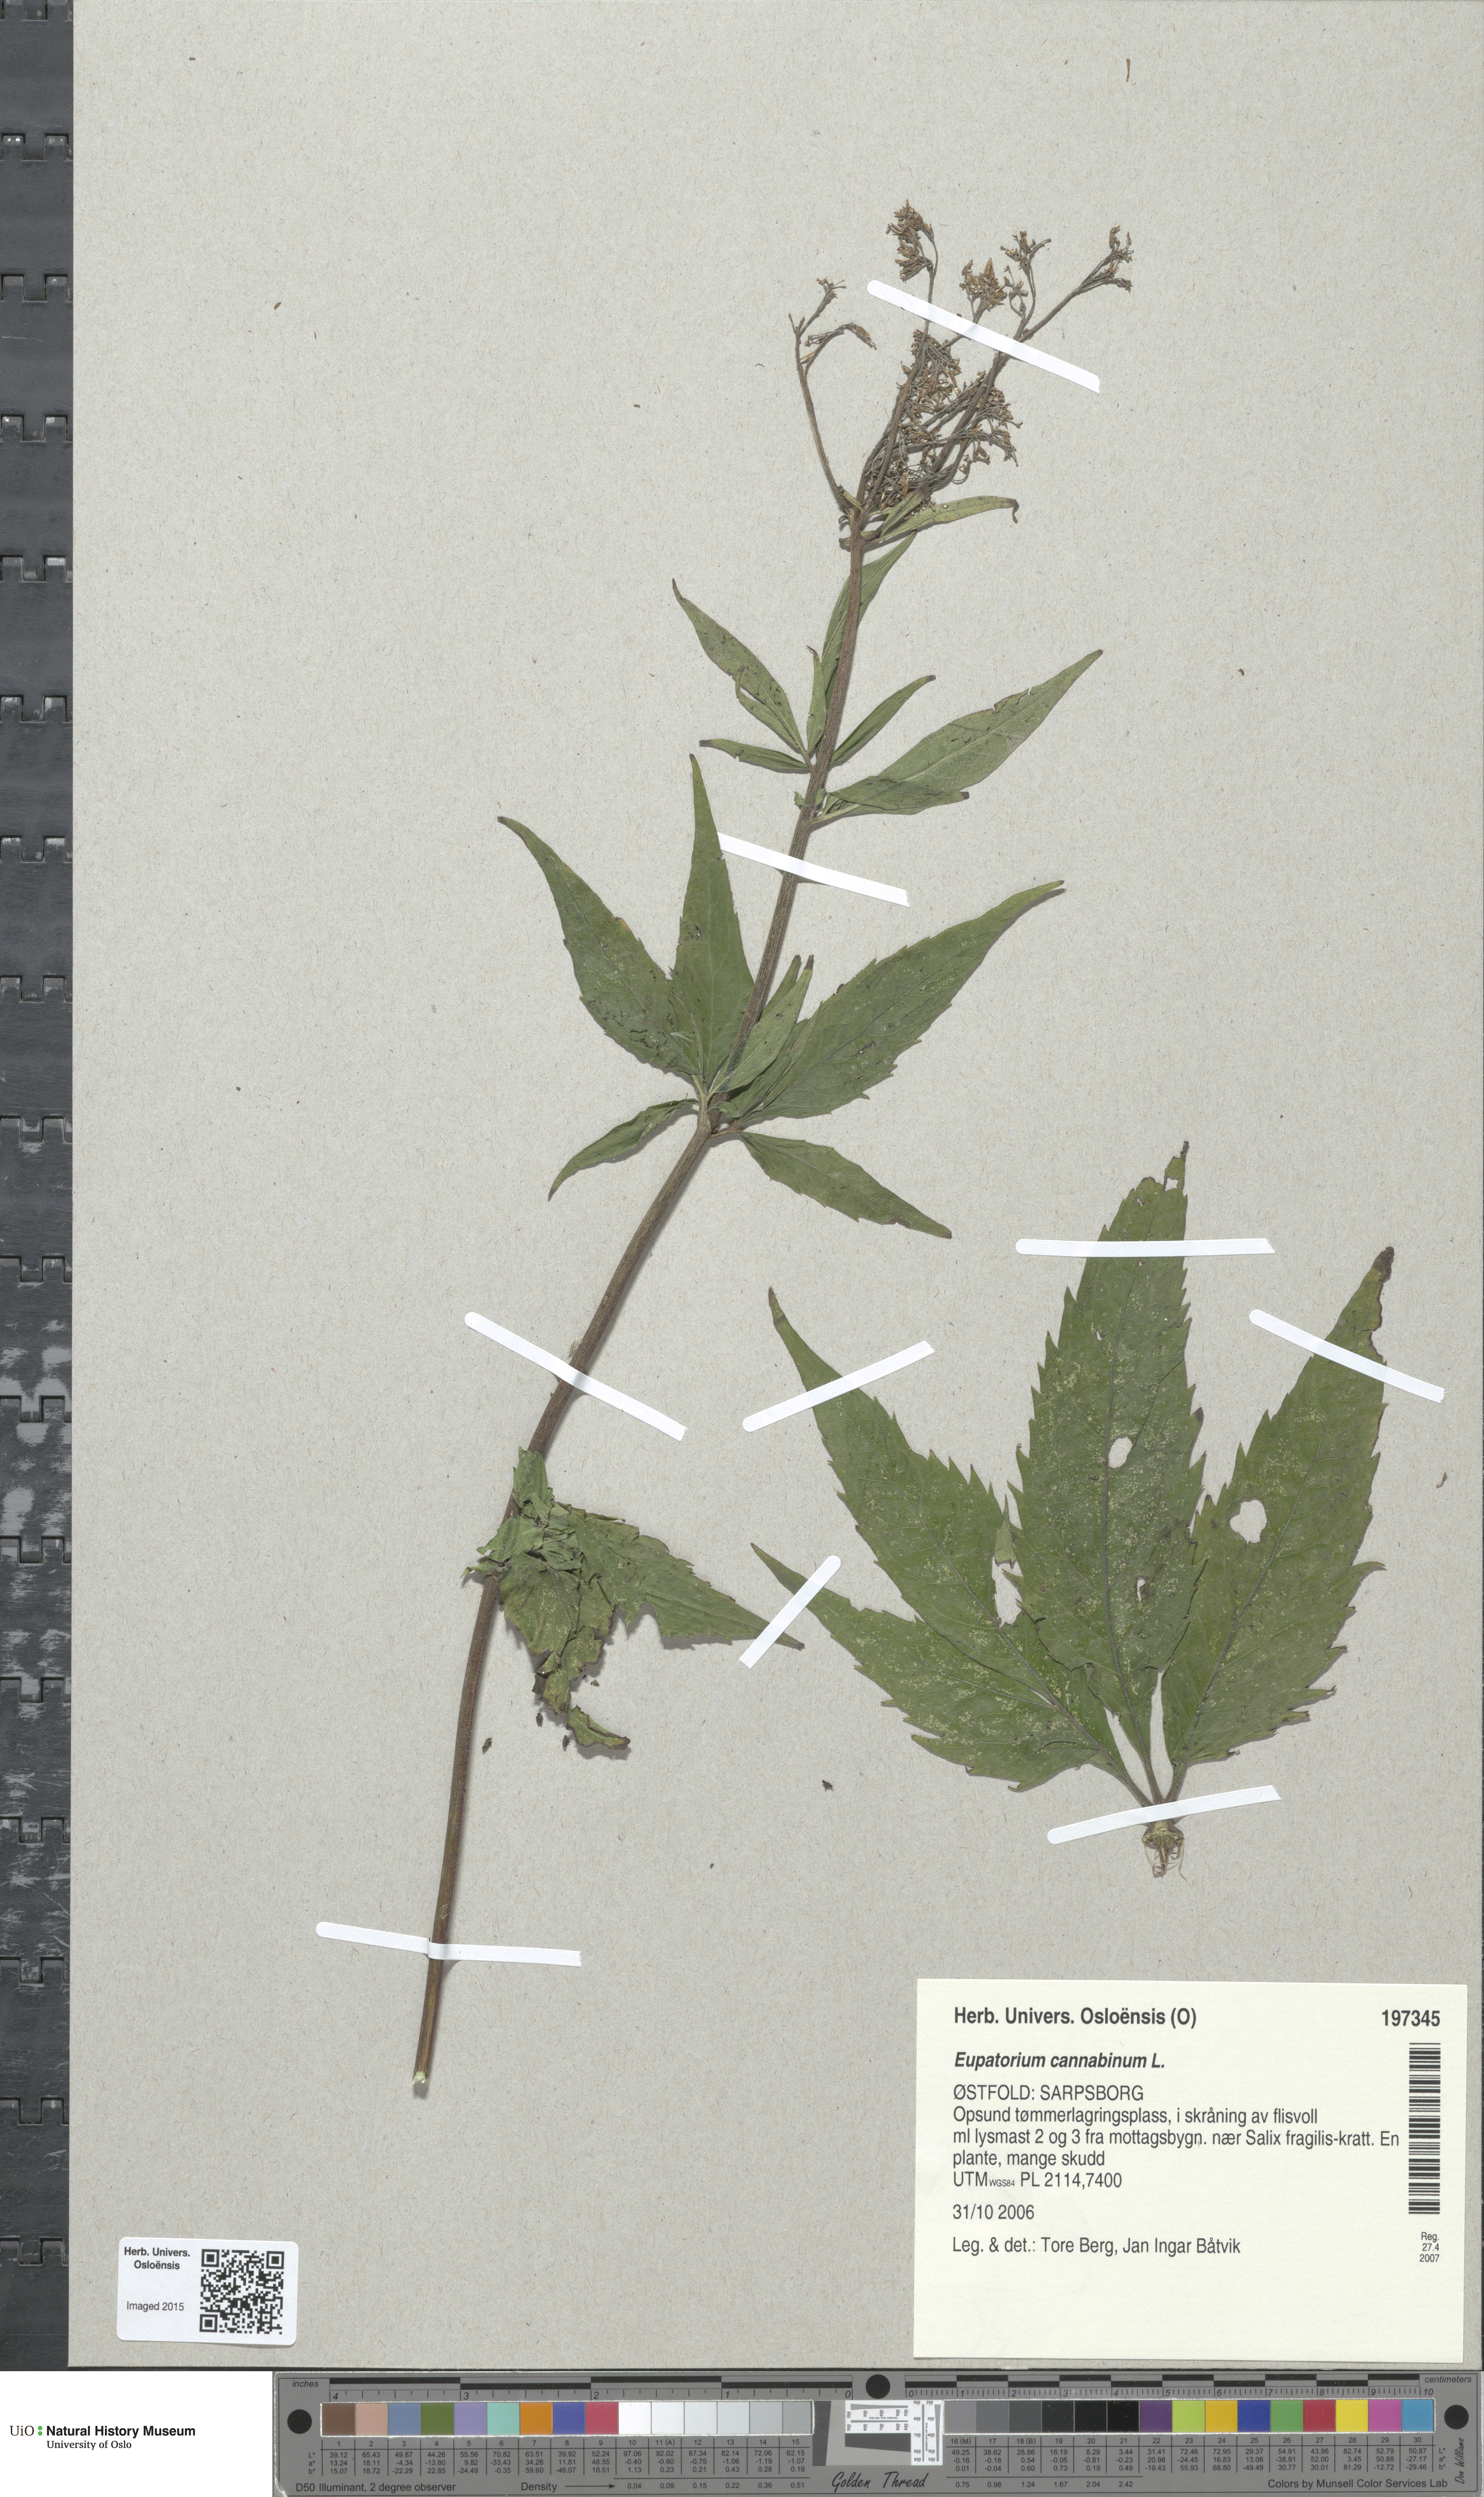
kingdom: Plantae
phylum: Tracheophyta
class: Magnoliopsida
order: Asterales
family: Asteraceae
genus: Eupatorium
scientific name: Eupatorium cannabinum
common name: Hemp-agrimony
